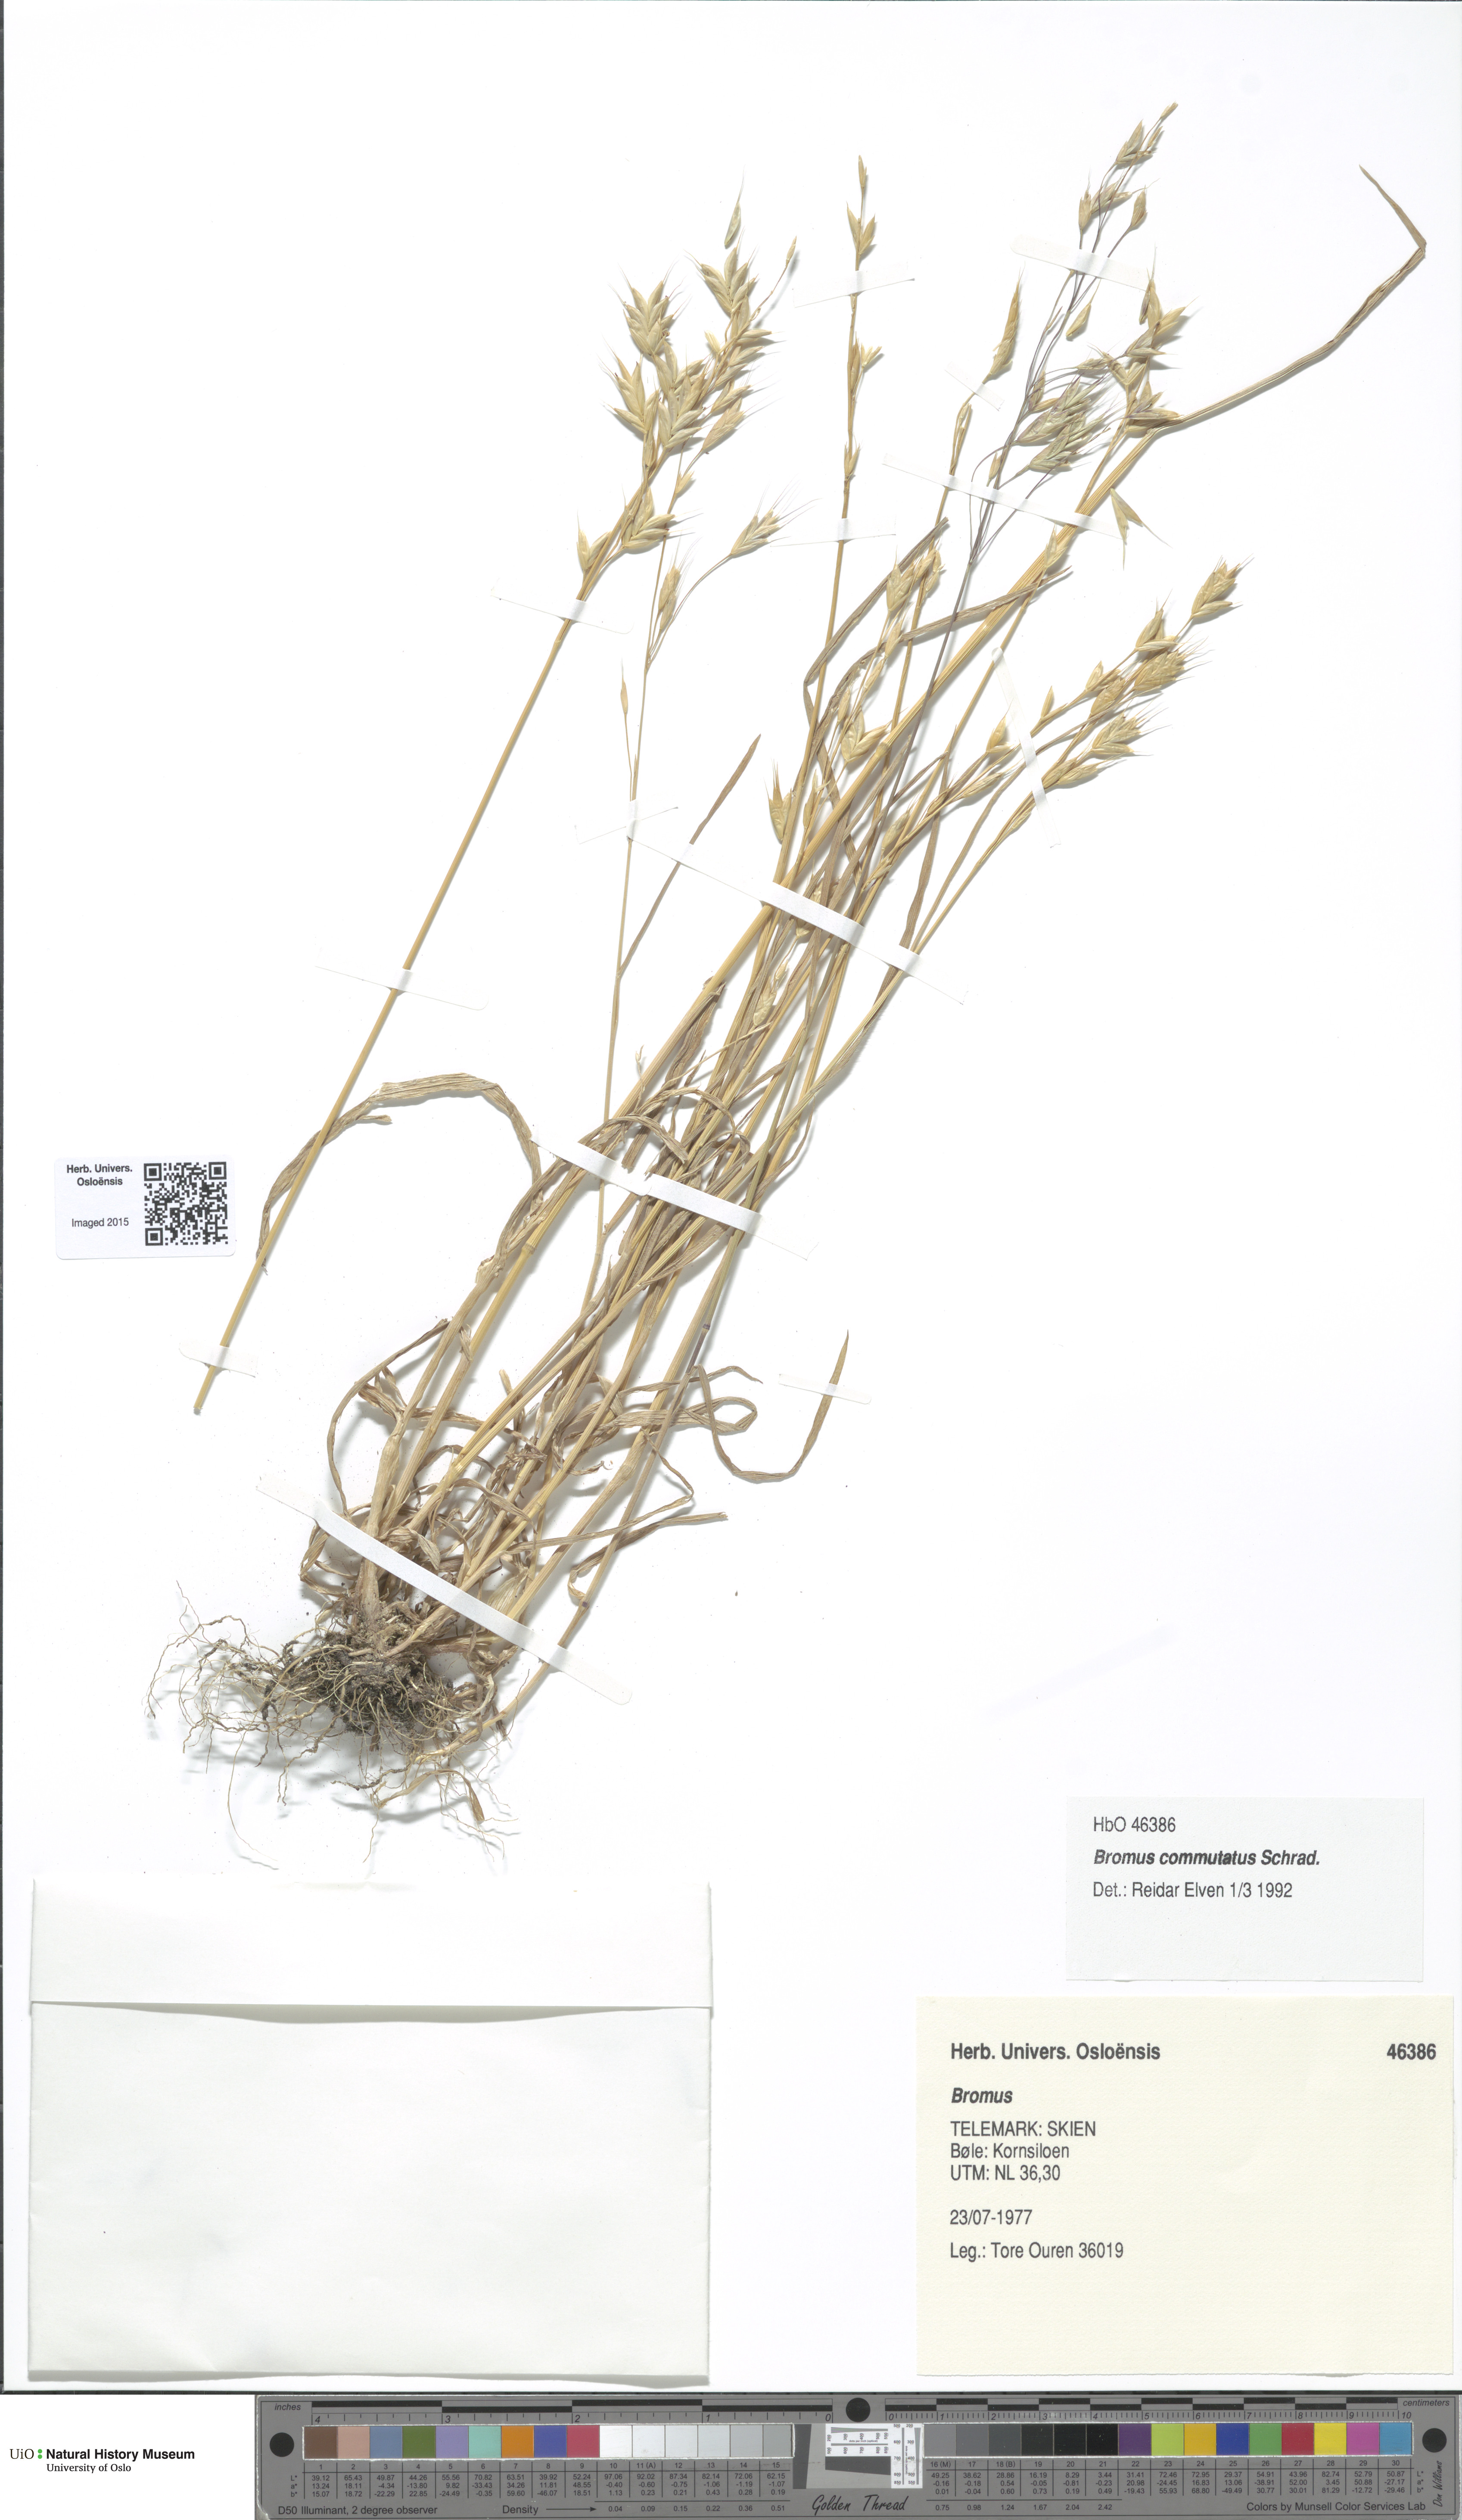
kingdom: Plantae
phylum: Tracheophyta
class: Liliopsida
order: Poales
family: Poaceae
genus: Bromus
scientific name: Bromus commutatus
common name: Meadow brome
